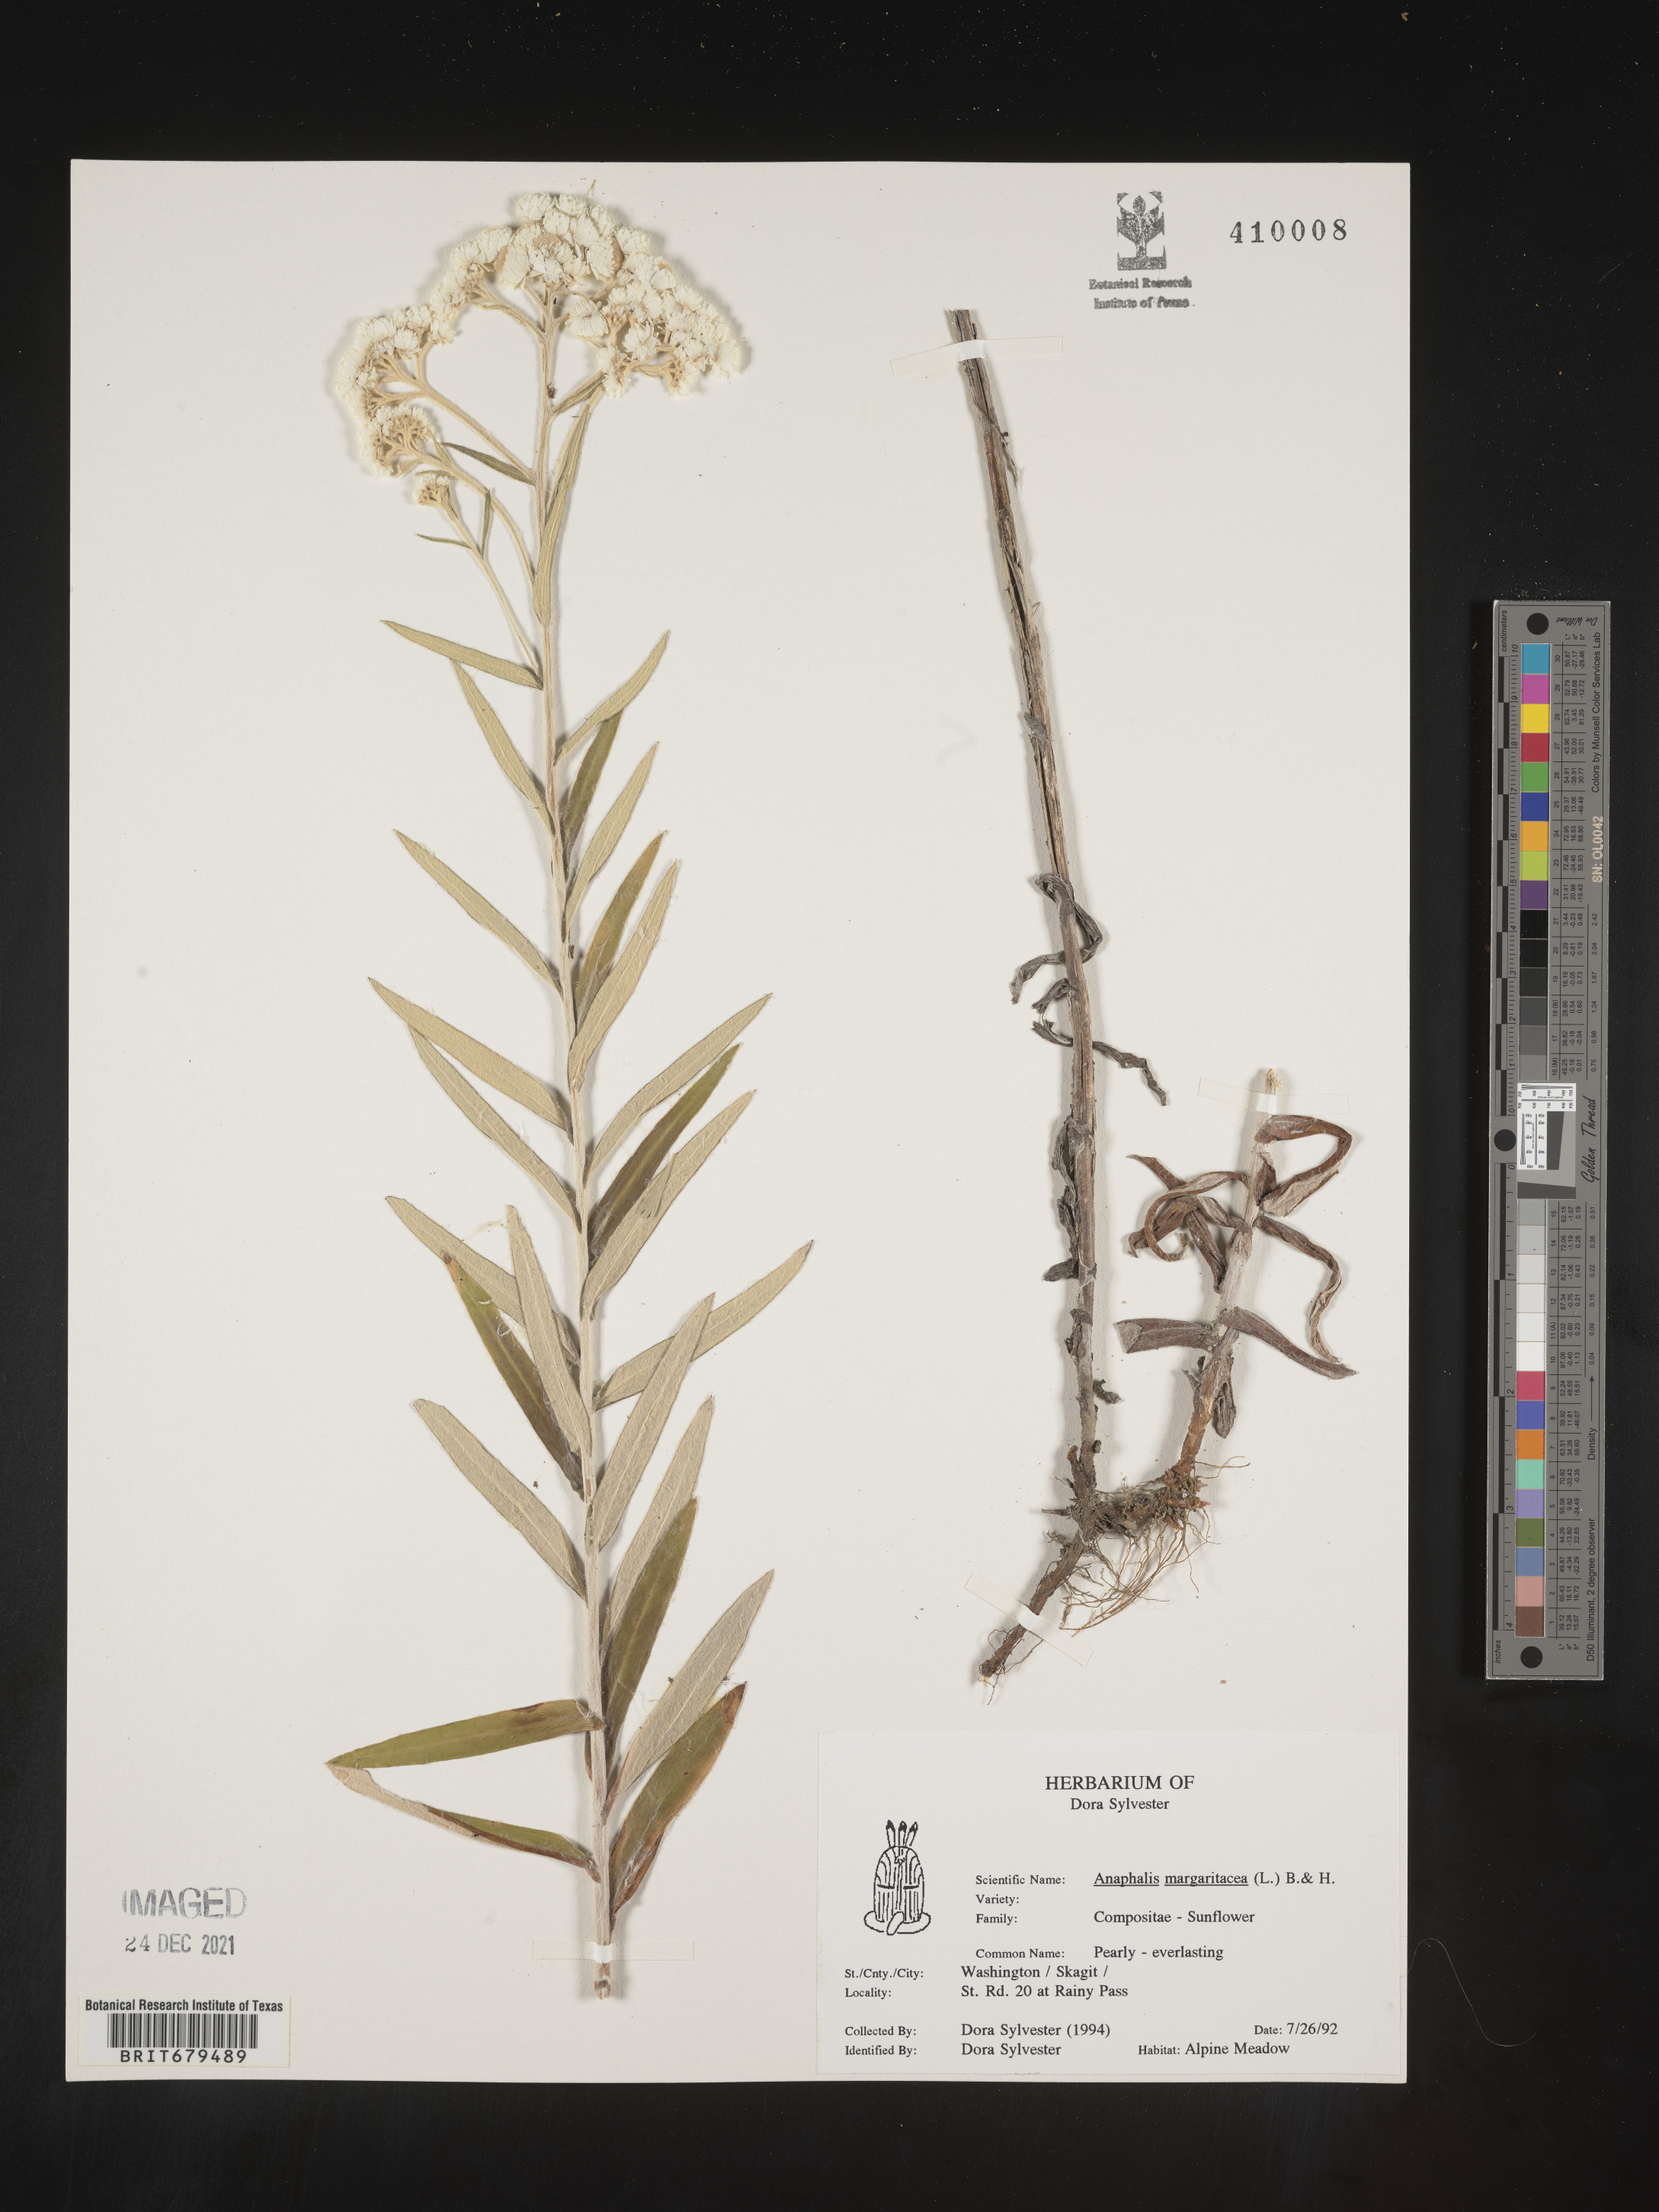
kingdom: Plantae
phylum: Tracheophyta
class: Magnoliopsida
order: Asterales
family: Asteraceae
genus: Anaphalis
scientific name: Anaphalis margaritacea
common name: Pearly everlasting
